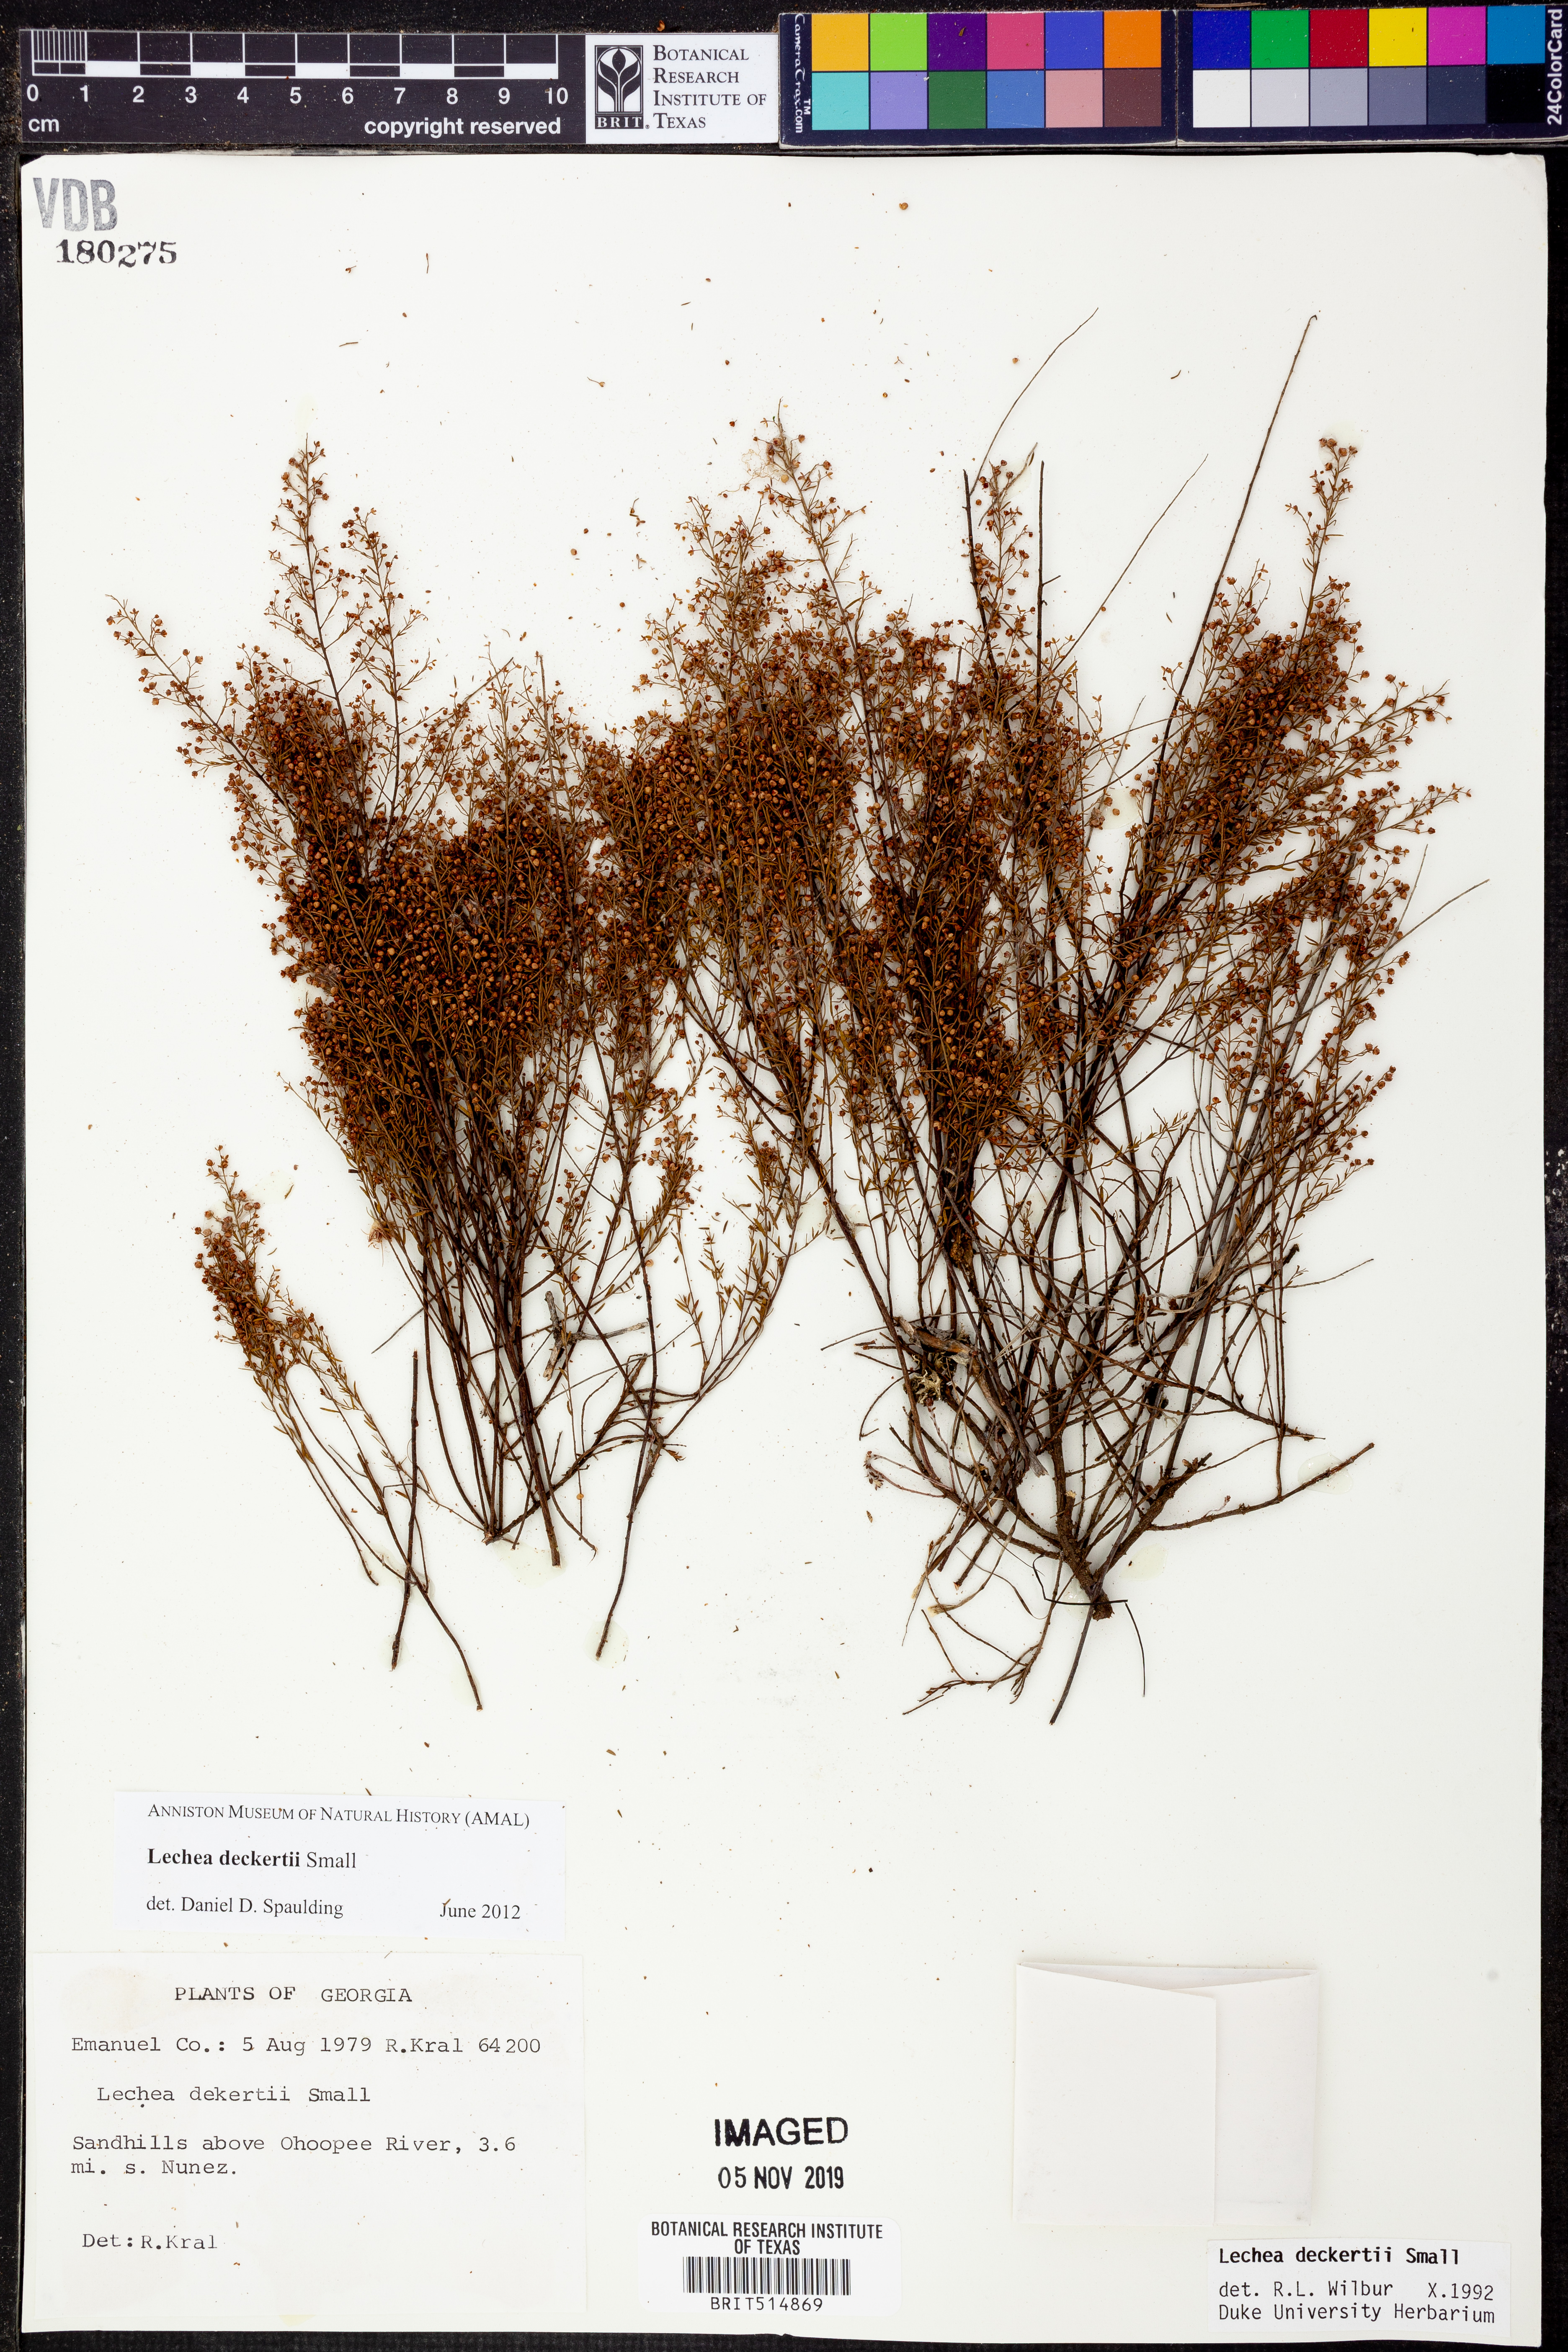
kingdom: Plantae
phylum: Tracheophyta
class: Magnoliopsida
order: Malvales
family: Cistaceae
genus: Lechea
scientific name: Lechea deckertii
